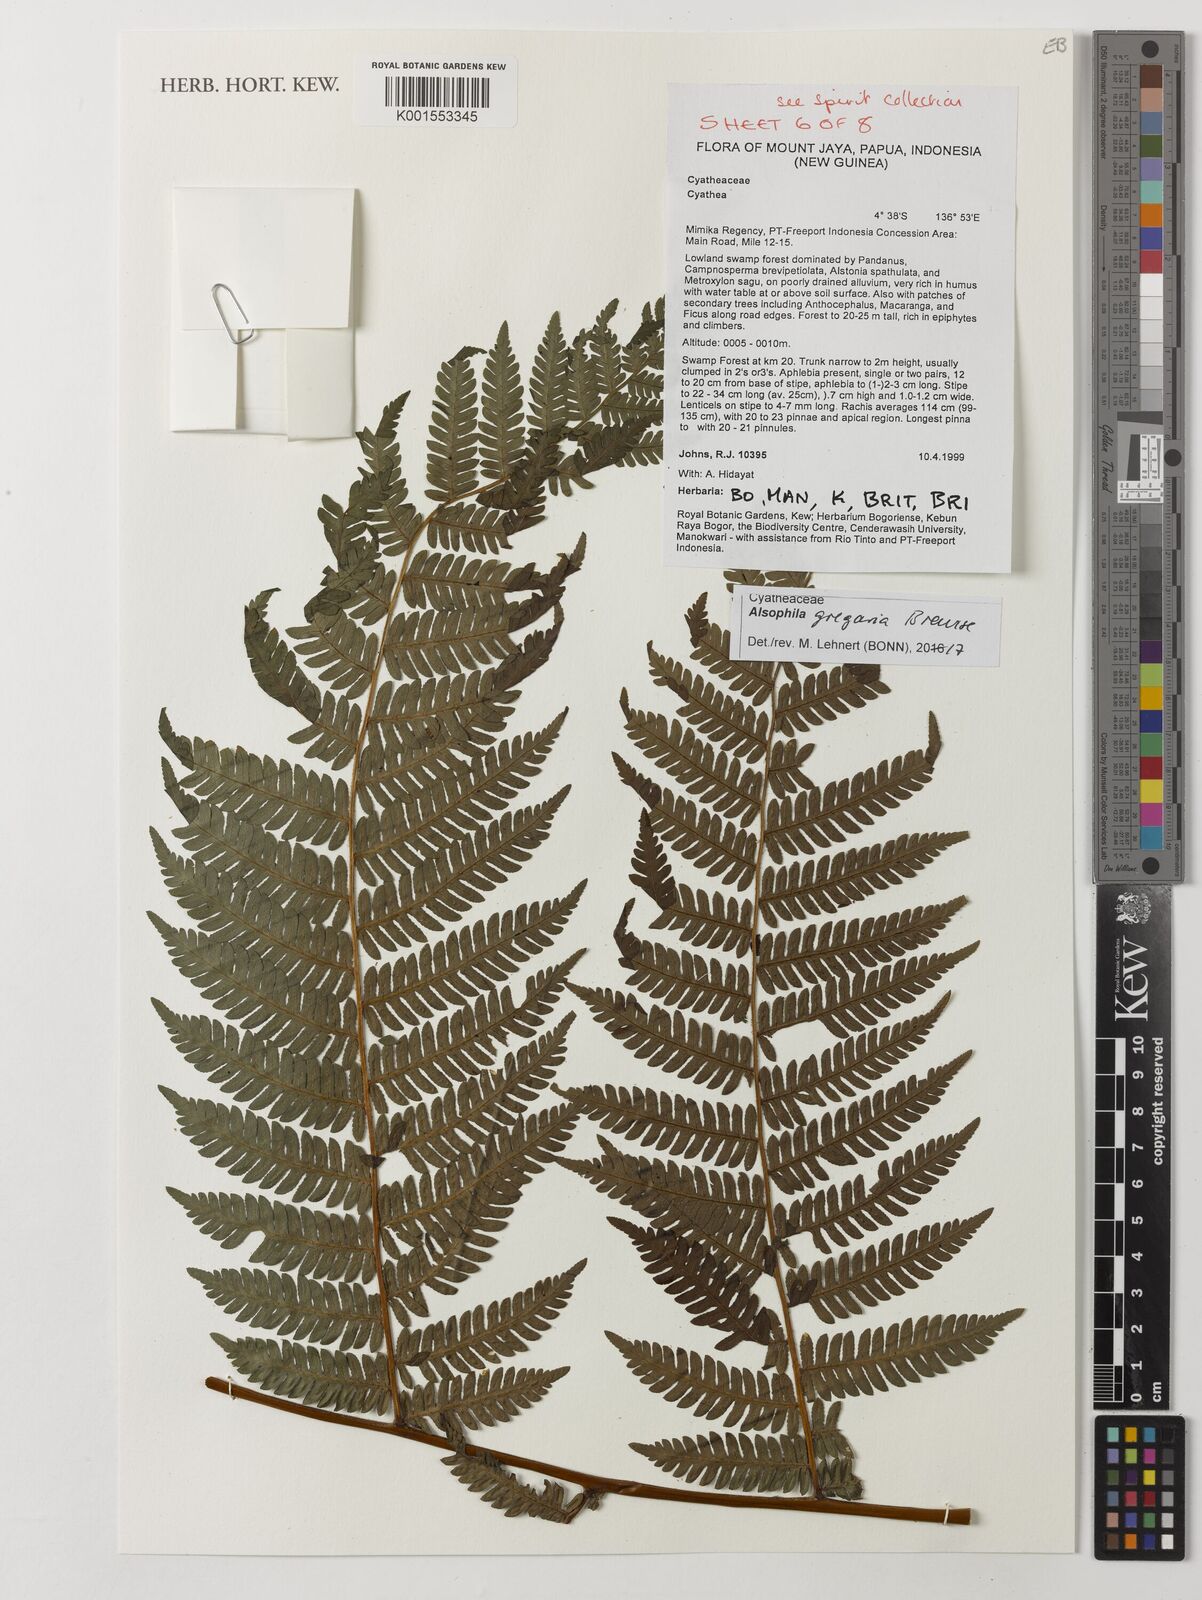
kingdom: Plantae
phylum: Tracheophyta
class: Polypodiopsida
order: Cyatheales
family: Cyatheaceae
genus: Alsophila
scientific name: Alsophila gregaria
